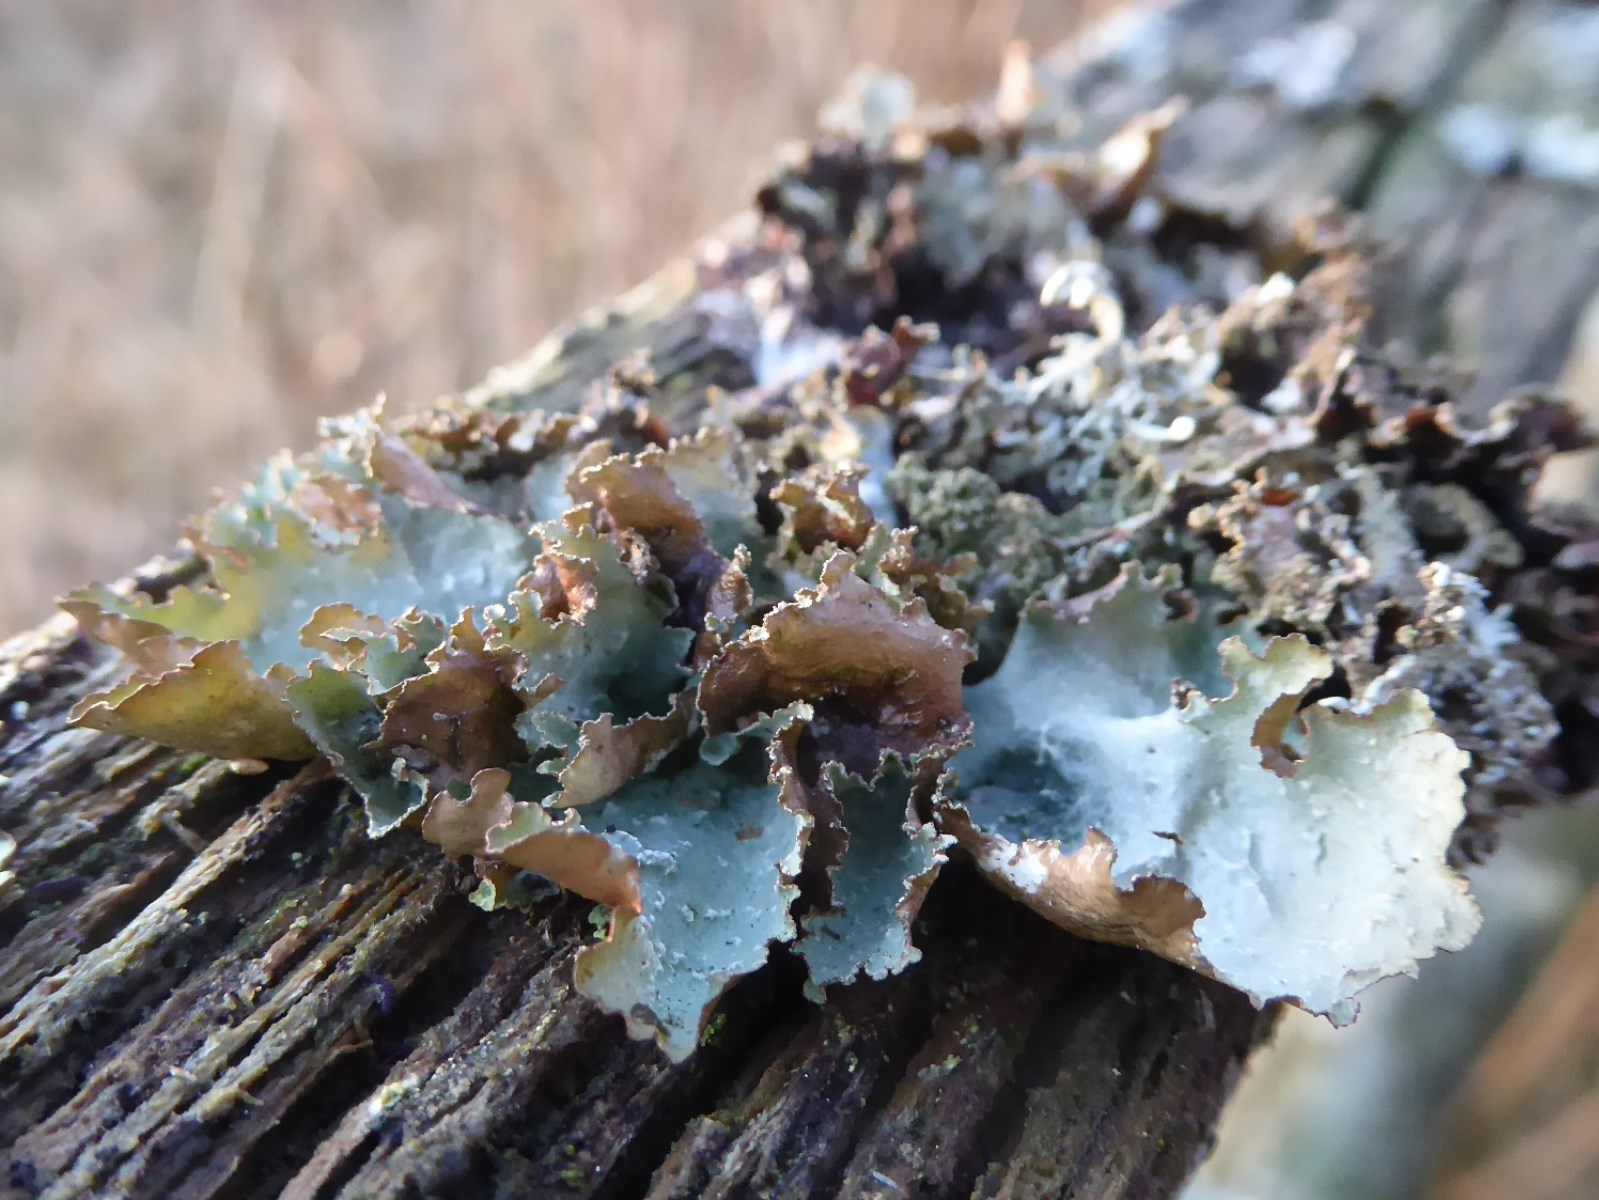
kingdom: Fungi
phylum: Ascomycota
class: Lecanoromycetes
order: Lecanorales
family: Parmeliaceae
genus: Platismatia
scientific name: Platismatia glauca
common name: blågrå papirlav
